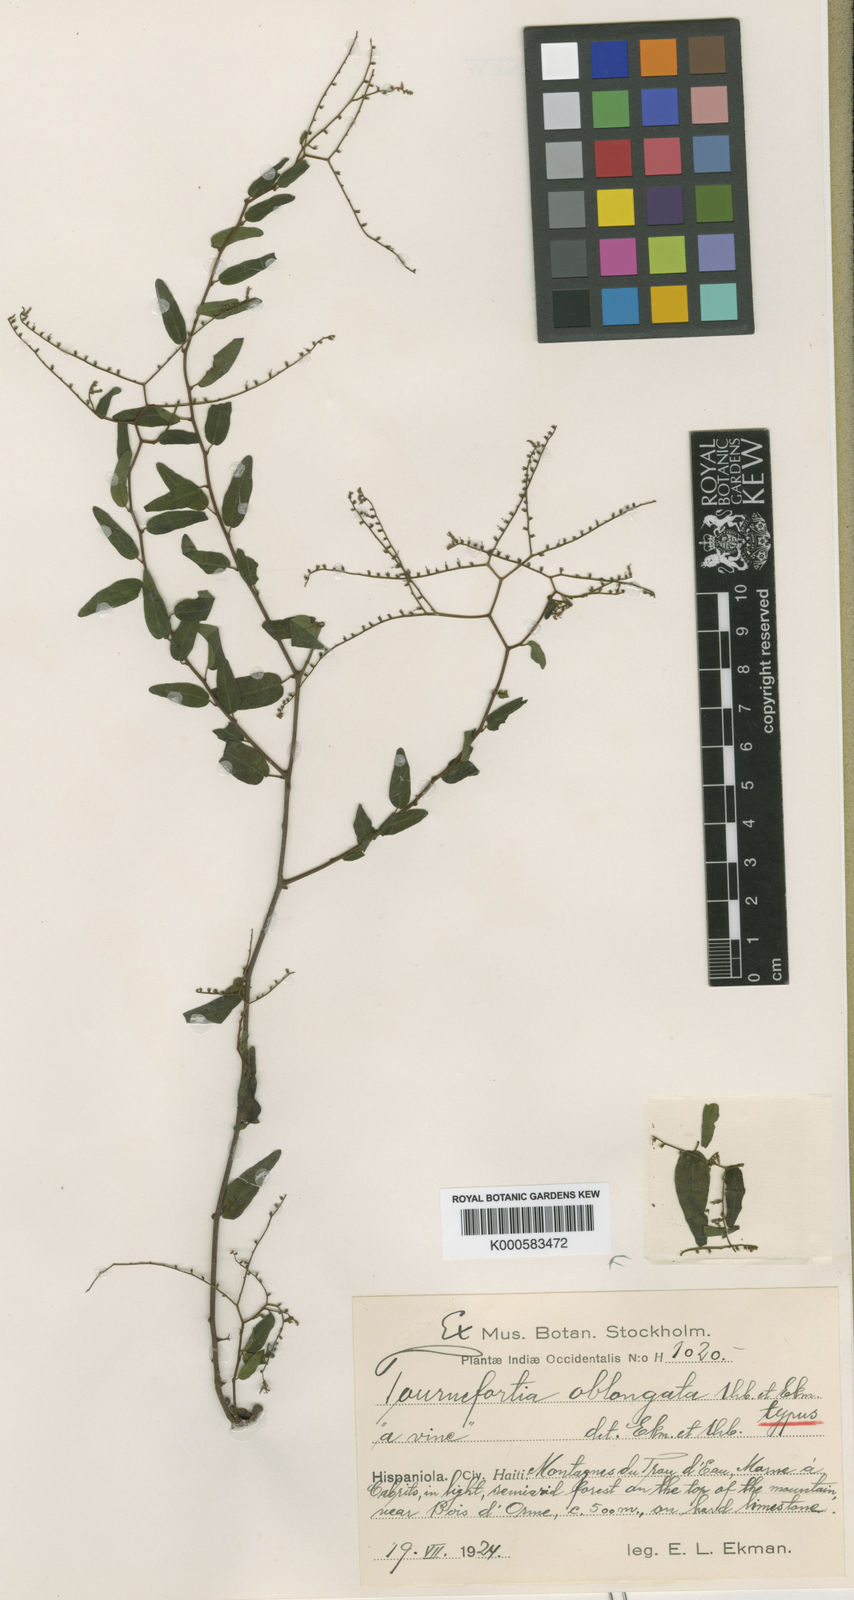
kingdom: Plantae
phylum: Tracheophyta
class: Magnoliopsida
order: Boraginales
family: Heliotropiaceae
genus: Myriopus
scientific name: Myriopus volubilis
